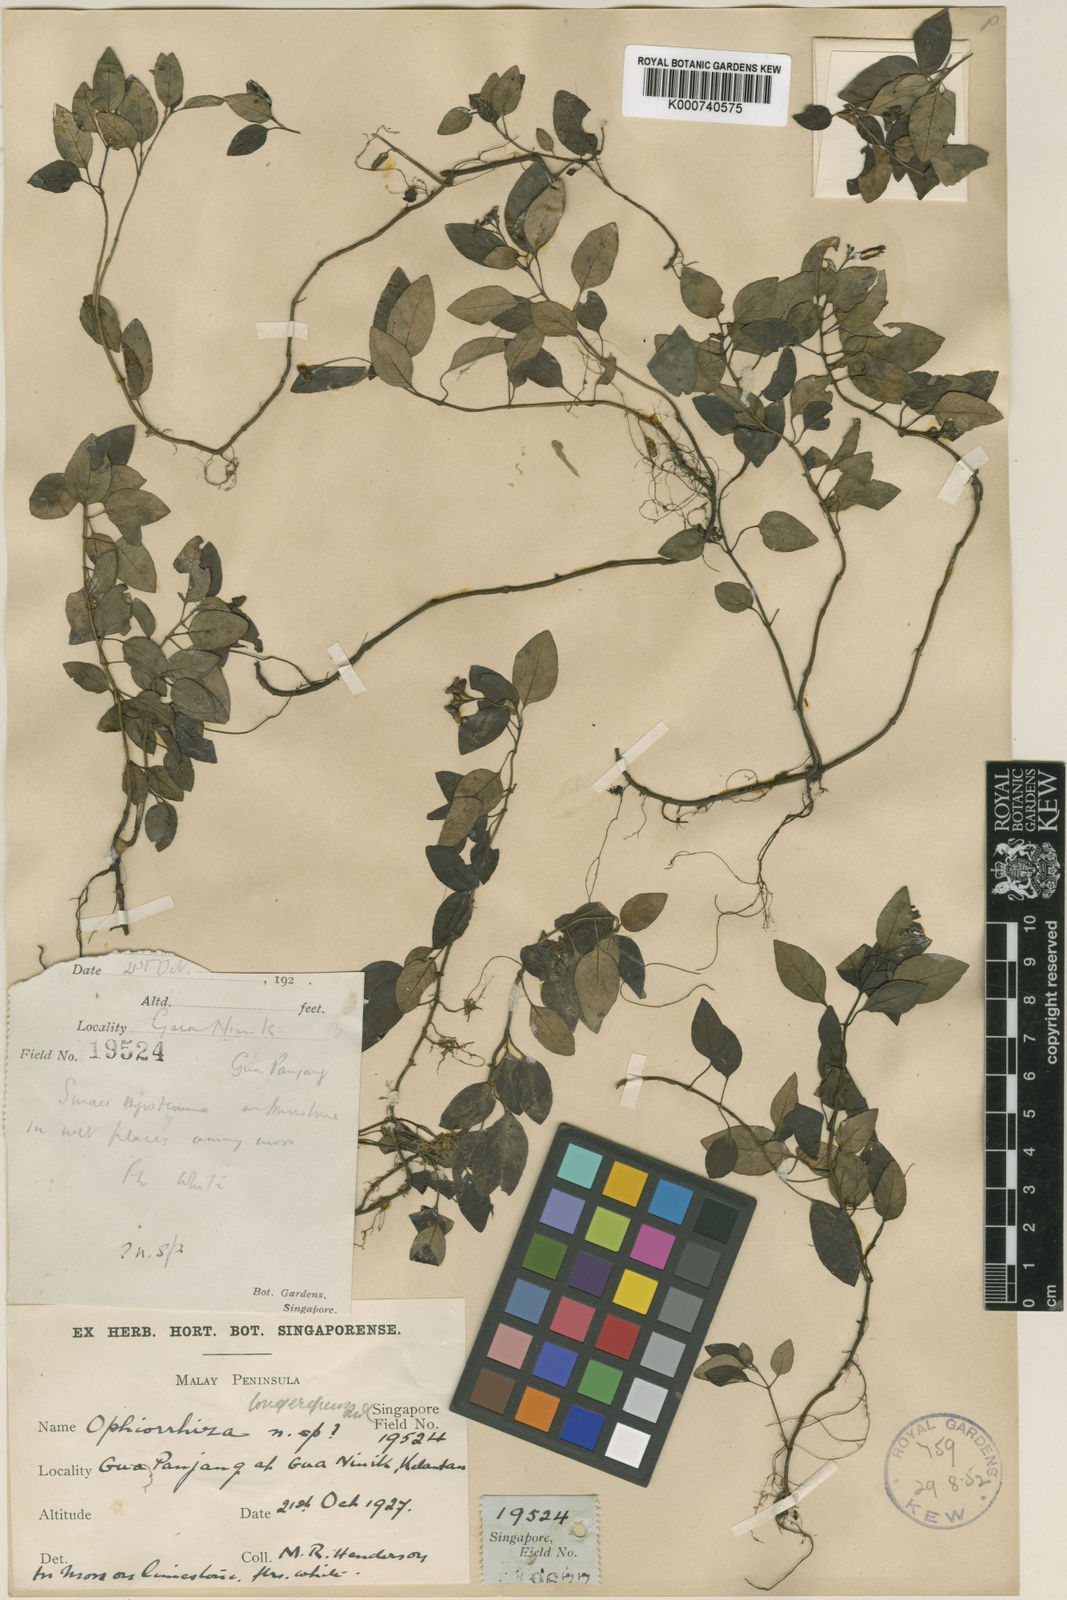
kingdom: Plantae
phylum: Tracheophyta
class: Magnoliopsida
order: Gentianales
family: Rubiaceae
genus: Ophiorrhiza
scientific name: Ophiorrhiza
